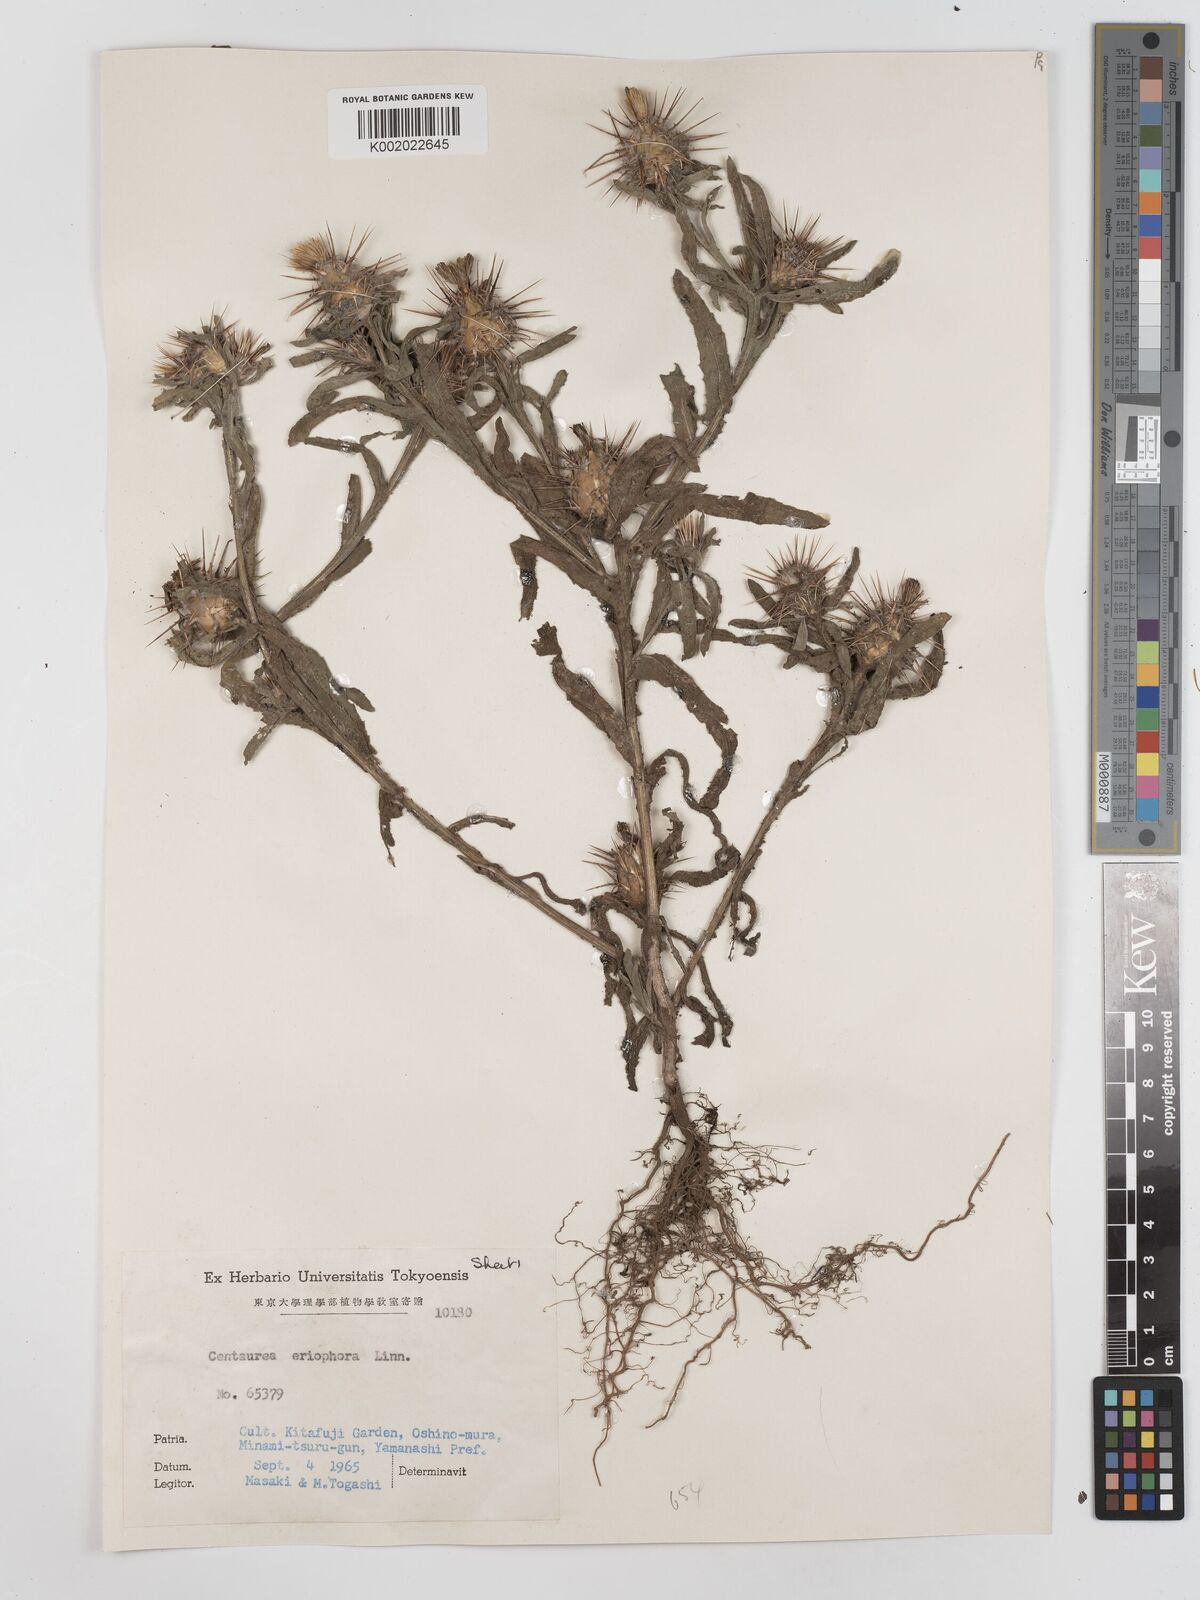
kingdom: Plantae
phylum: Tracheophyta
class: Magnoliopsida
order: Asterales
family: Asteraceae
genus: Centaurea
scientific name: Centaurea eriophora
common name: Wild sandheath
